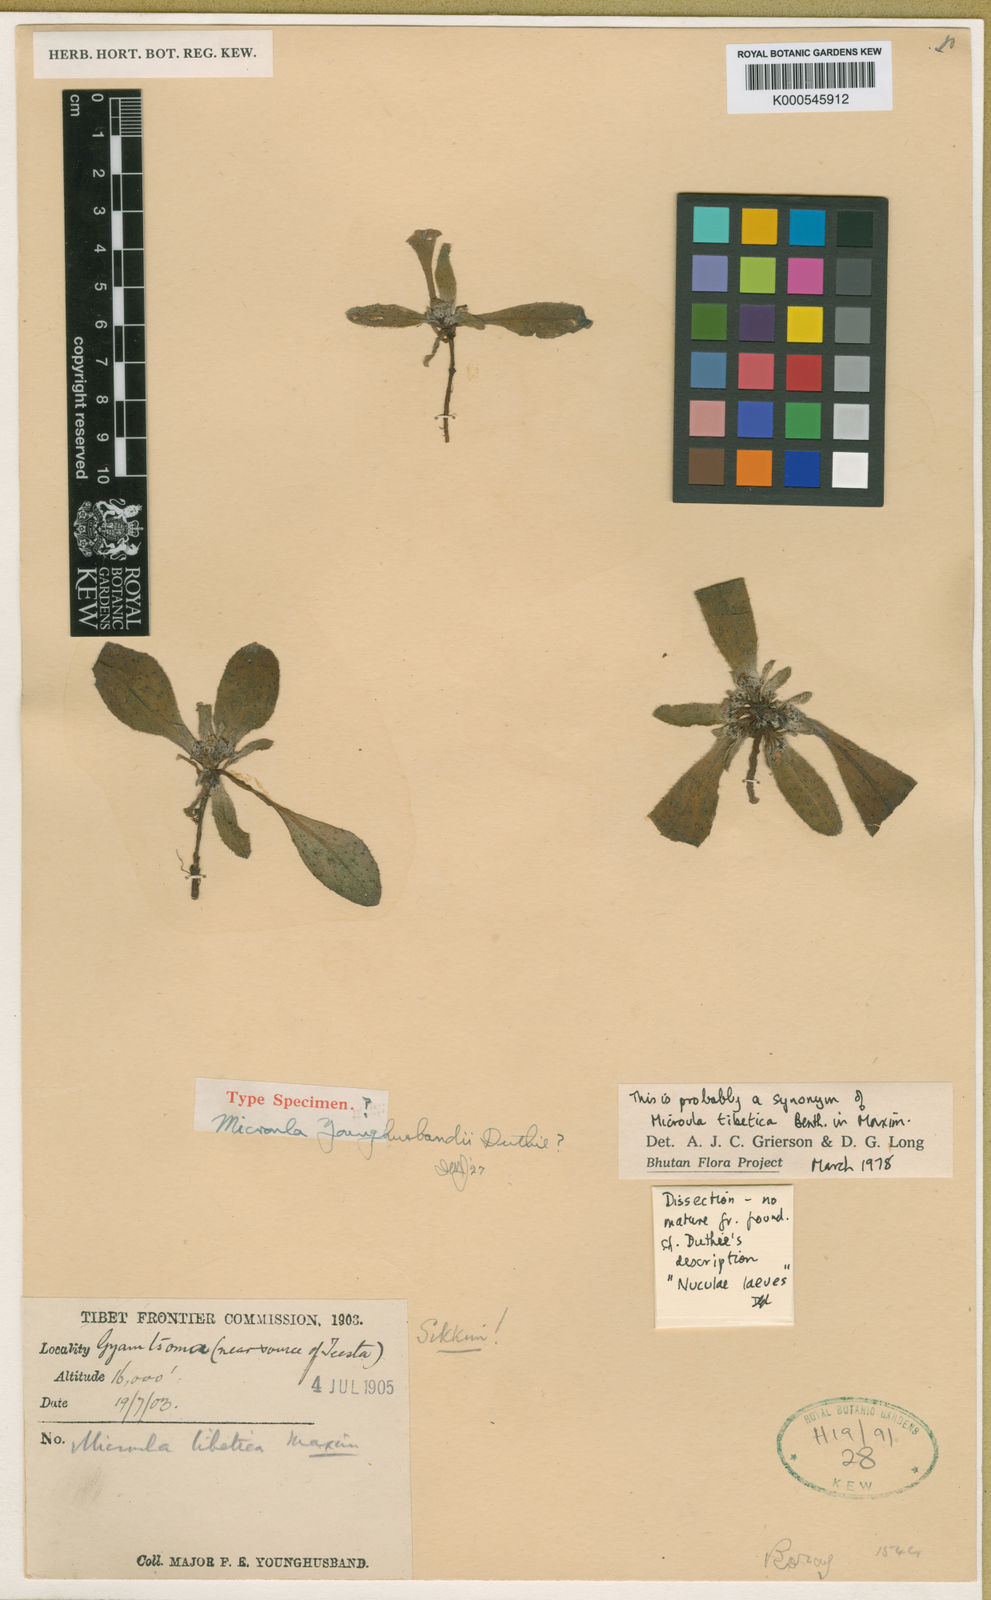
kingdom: Plantae
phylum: Tracheophyta
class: Magnoliopsida
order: Boraginales
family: Boraginaceae
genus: Microula
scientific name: Microula younghusbandii
